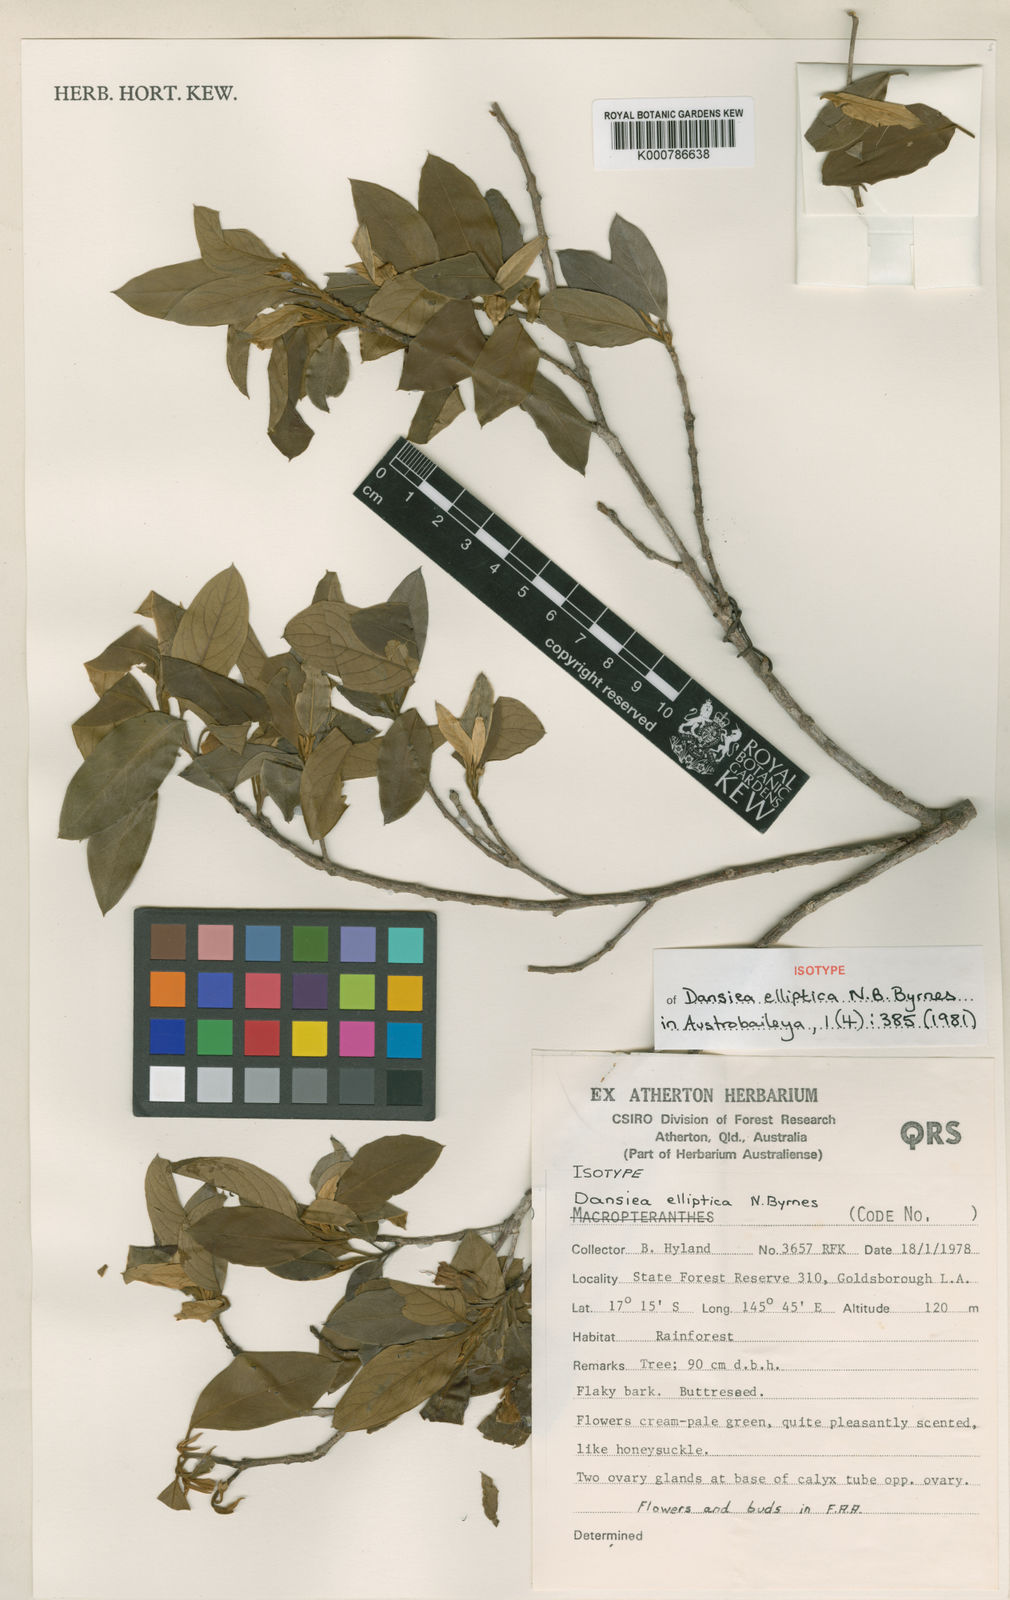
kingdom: Plantae
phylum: Tracheophyta
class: Magnoliopsida
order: Myrtales
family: Combretaceae
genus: Dansiea
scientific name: Dansiea elliptica
